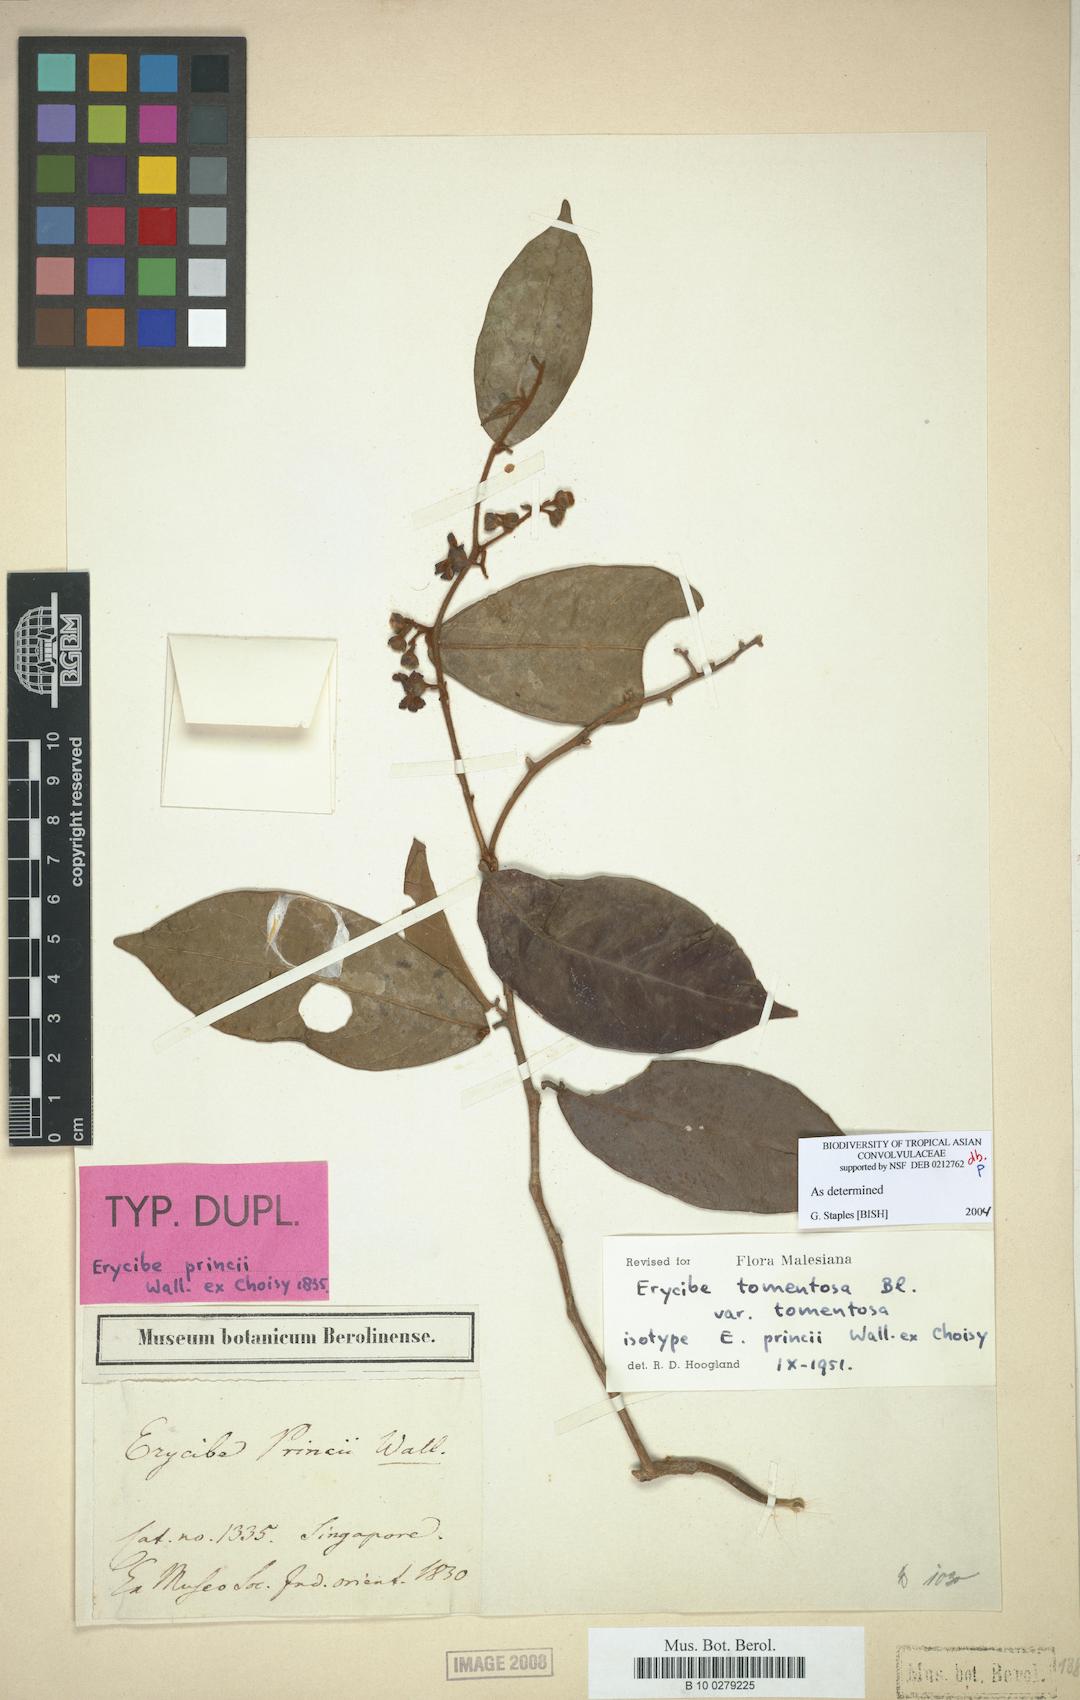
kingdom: Plantae
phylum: Tracheophyta
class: Magnoliopsida
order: Solanales
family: Convolvulaceae
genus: Erycibe
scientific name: Erycibe tomentosa
